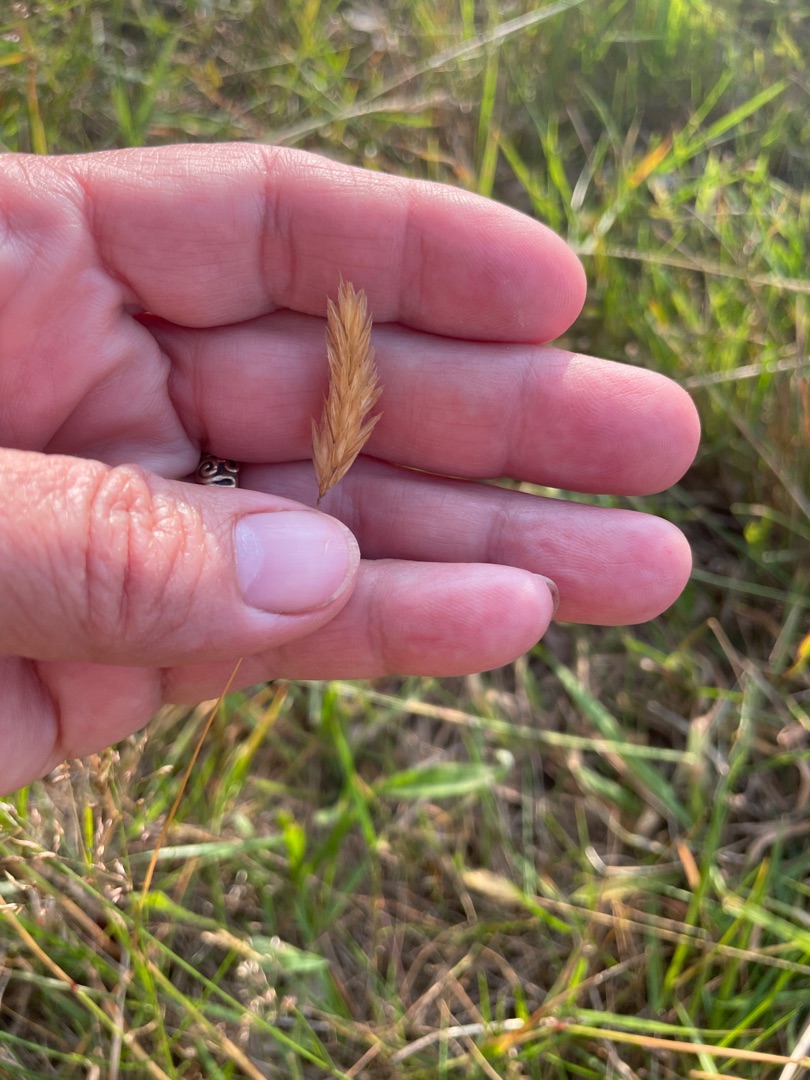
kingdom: Plantae
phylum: Tracheophyta
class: Liliopsida
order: Poales
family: Poaceae
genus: Anthoxanthum
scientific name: Anthoxanthum odoratum
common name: Vellugtende gulaks
